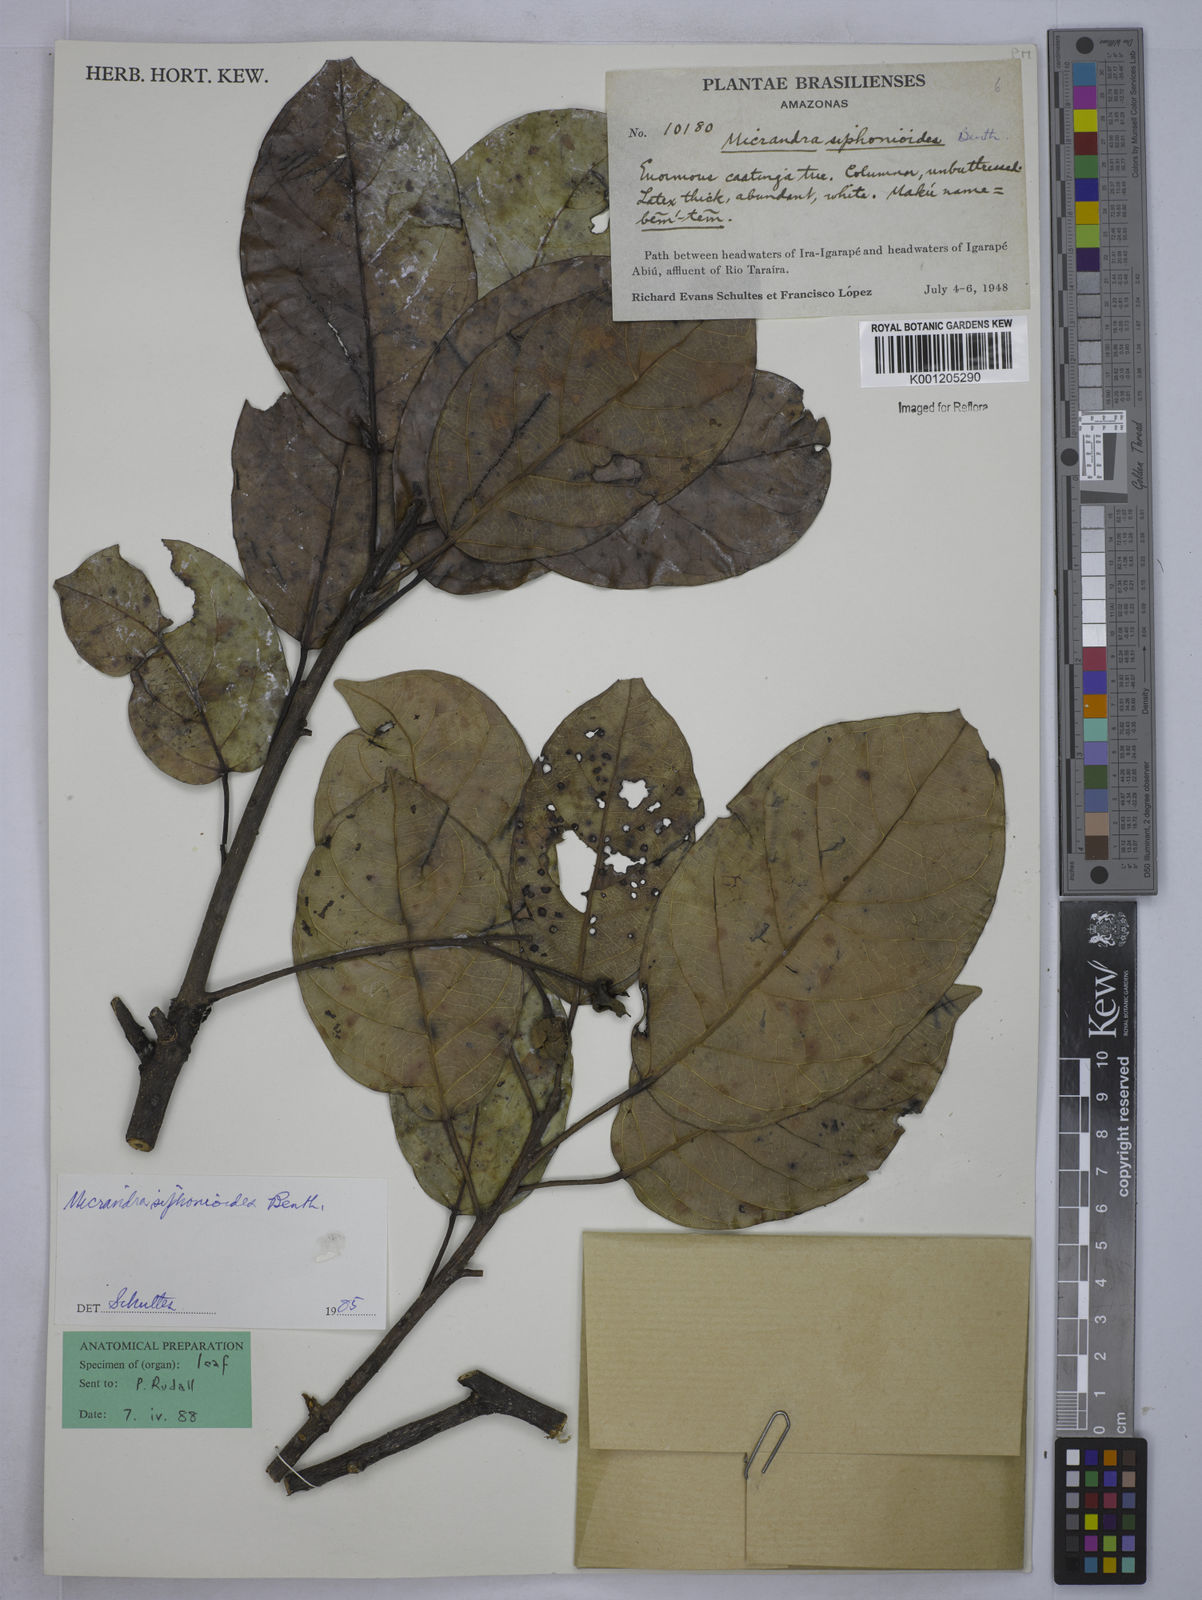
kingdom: Plantae
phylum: Tracheophyta
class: Magnoliopsida
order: Malpighiales
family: Euphorbiaceae
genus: Micrandra
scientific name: Micrandra siphonioides
